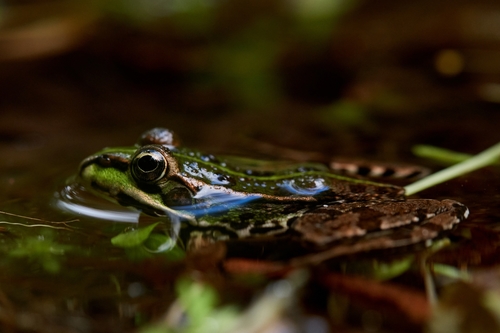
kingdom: Animalia
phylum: Chordata
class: Amphibia
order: Anura
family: Ranidae
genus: Pelophylax
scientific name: Pelophylax perezi
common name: Perez's frog
